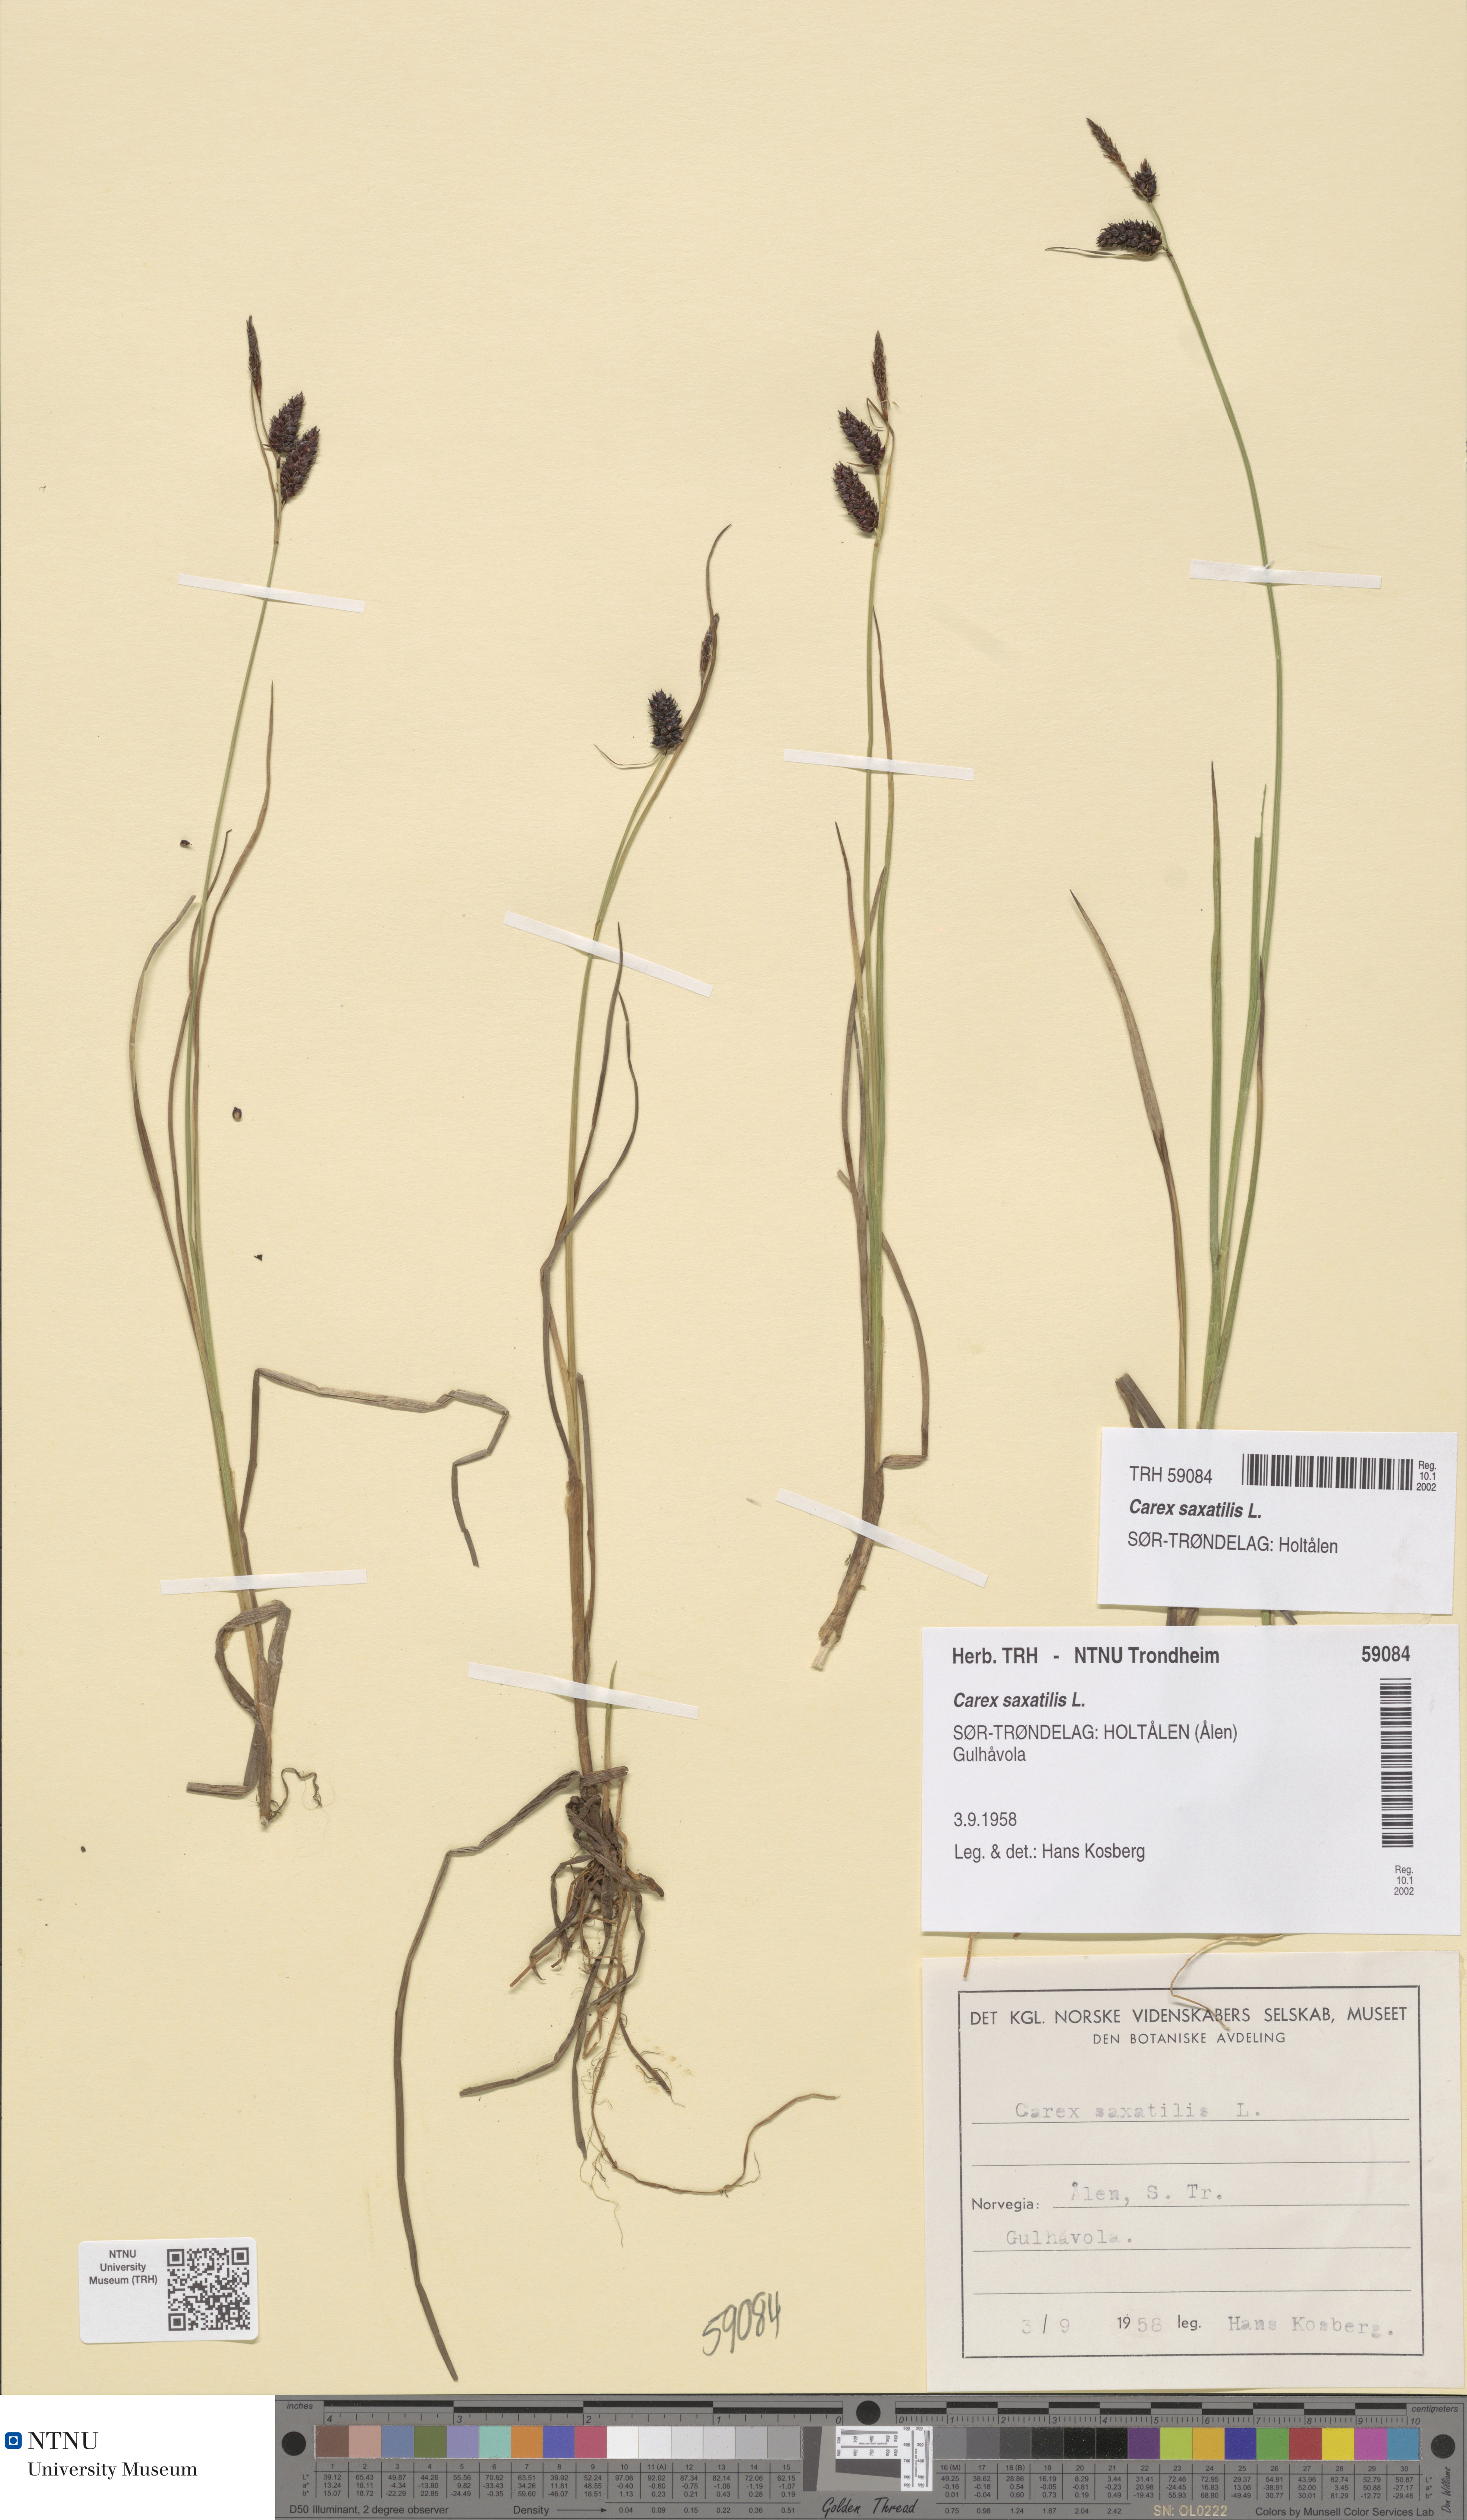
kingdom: Plantae
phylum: Tracheophyta
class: Liliopsida
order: Poales
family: Cyperaceae
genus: Carex
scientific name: Carex saxatilis
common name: Russet sedge
